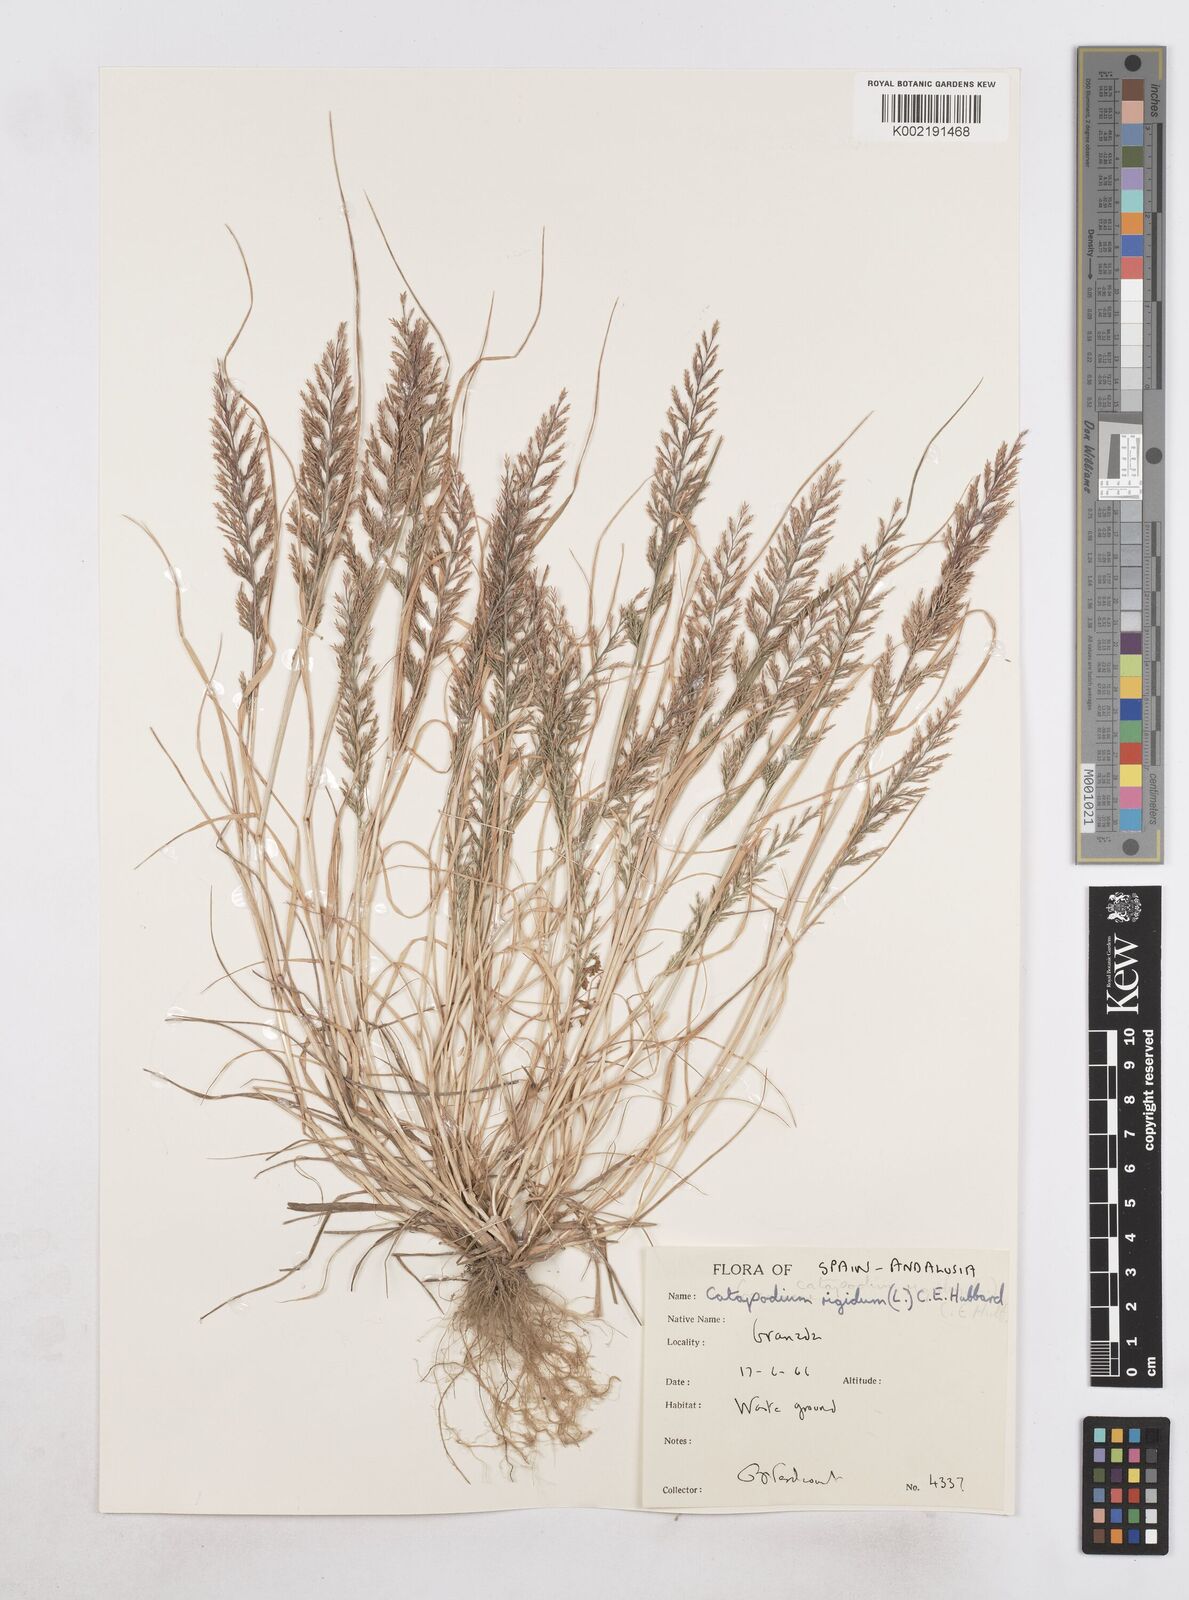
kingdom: Plantae
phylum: Tracheophyta
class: Liliopsida
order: Poales
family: Poaceae
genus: Catapodium
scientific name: Catapodium rigidum
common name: Fern-grass
